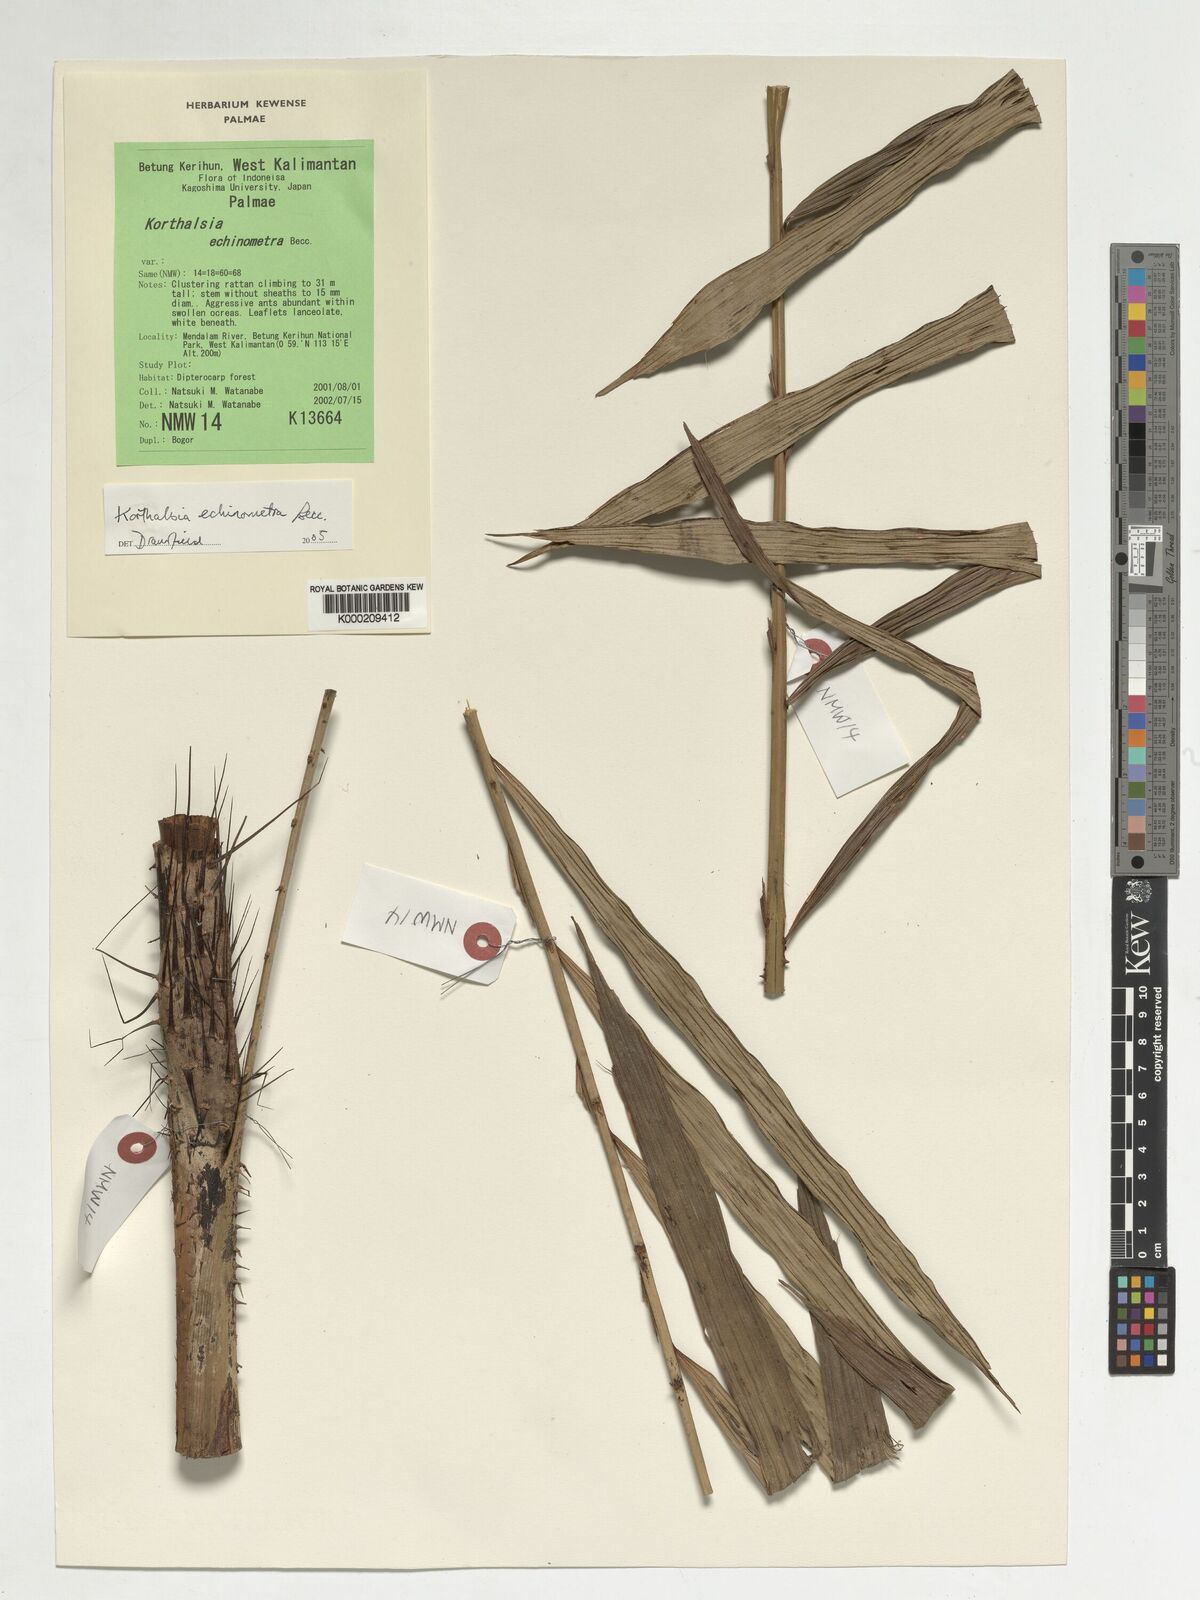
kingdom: Plantae
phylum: Tracheophyta
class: Liliopsida
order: Arecales
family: Arecaceae
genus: Korthalsia
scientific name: Korthalsia echinometra
